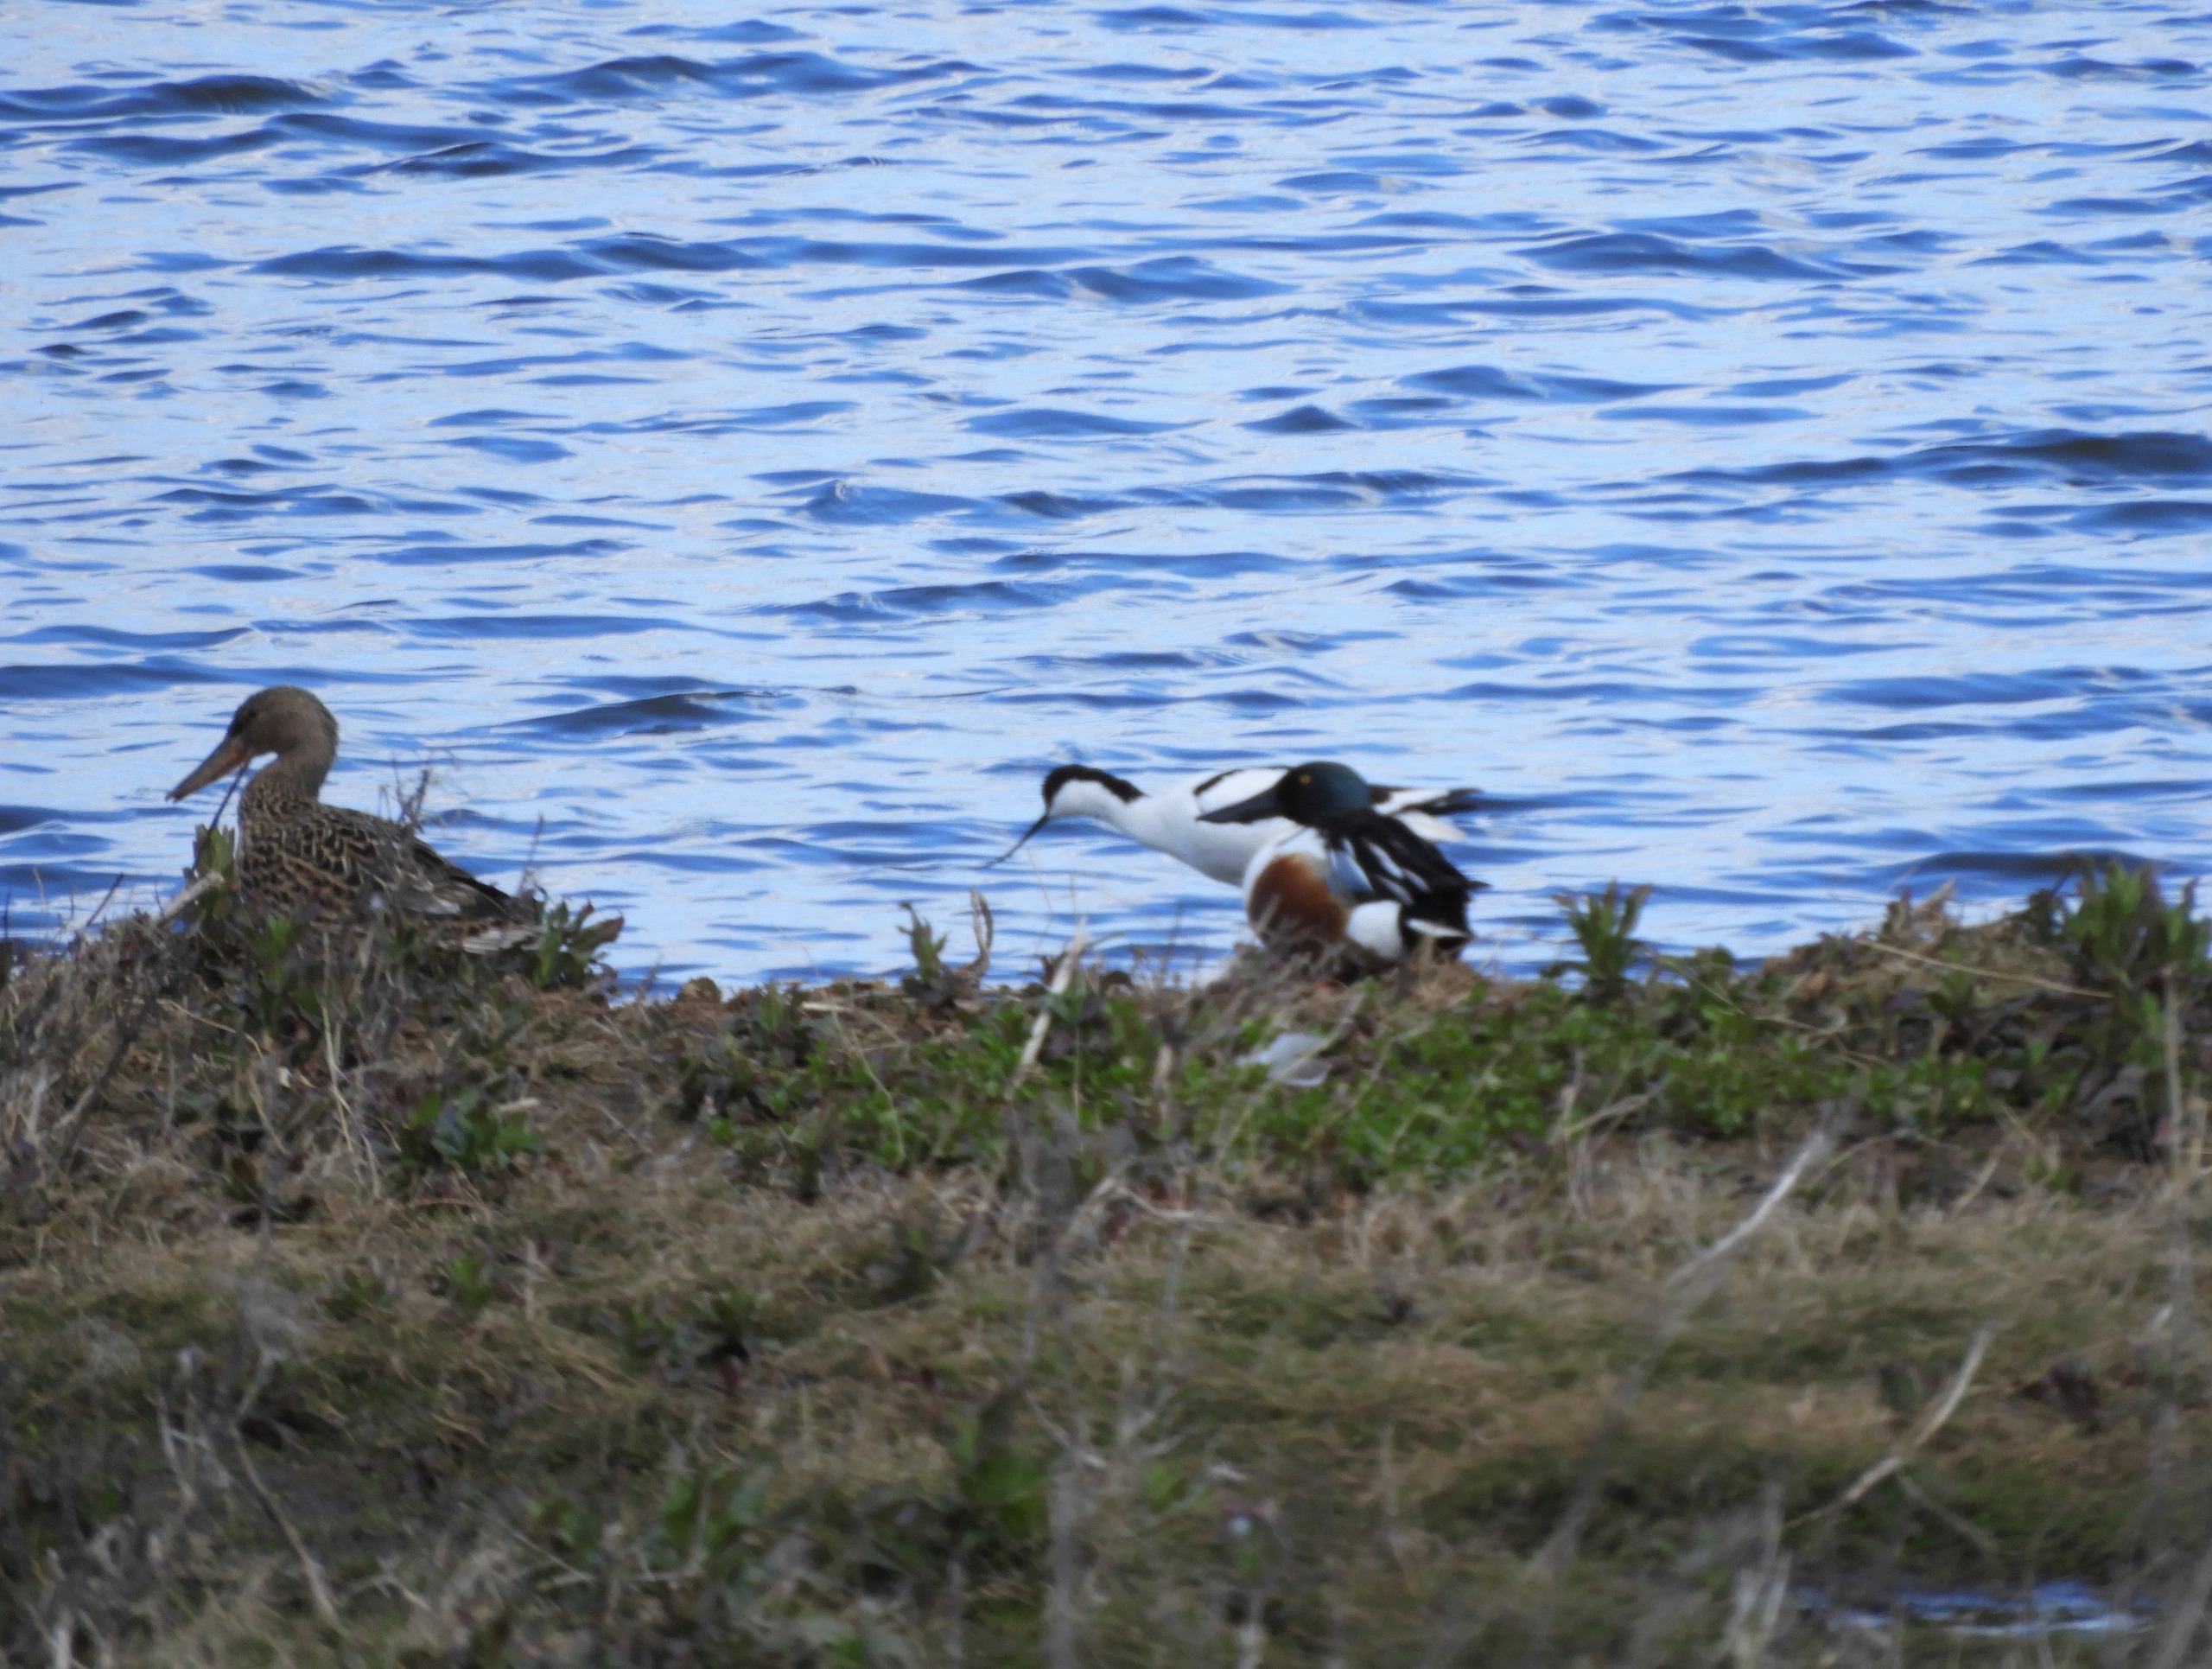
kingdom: Animalia
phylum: Chordata
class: Aves
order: Anseriformes
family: Anatidae
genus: Spatula
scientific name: Spatula clypeata
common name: Skeand
